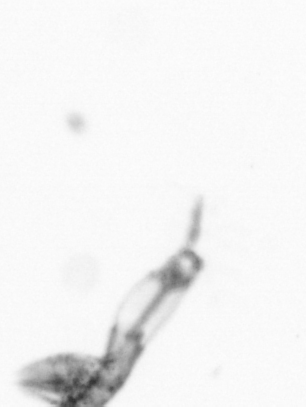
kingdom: Animalia
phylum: Arthropoda
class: Copepoda
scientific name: Copepoda
